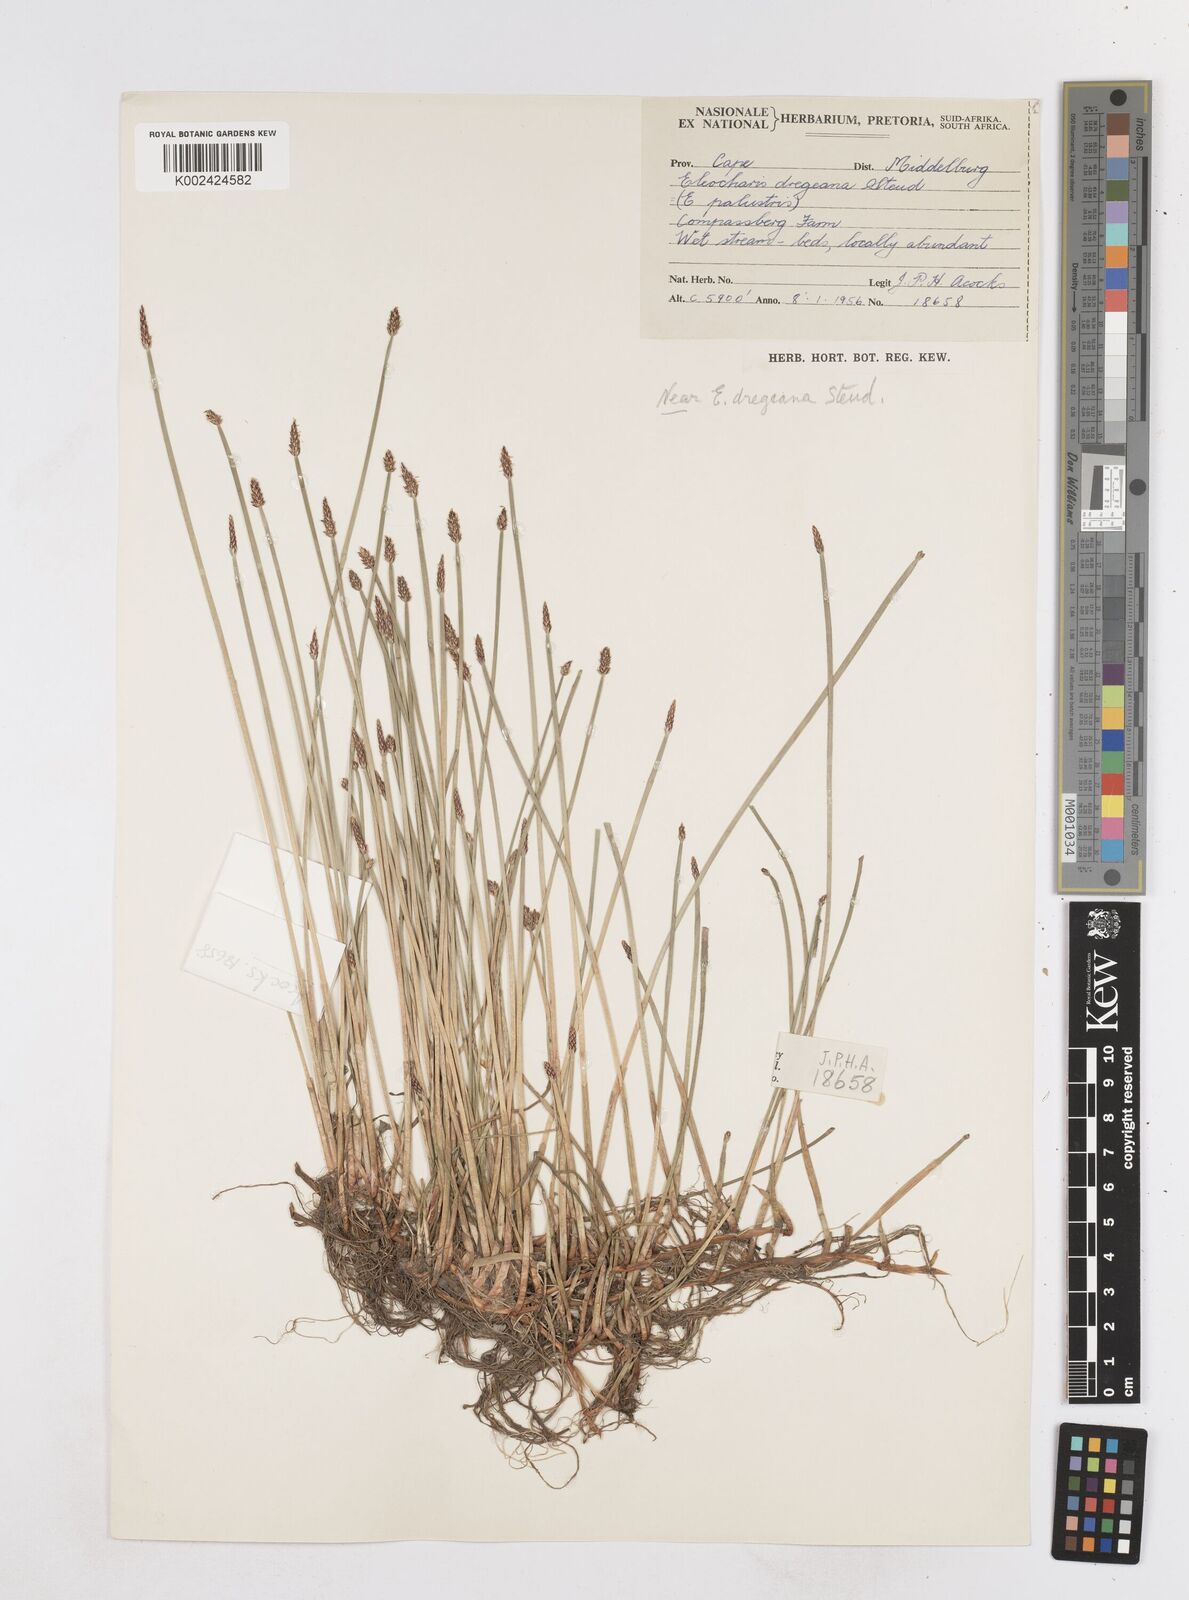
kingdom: Plantae
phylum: Tracheophyta
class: Liliopsida
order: Poales
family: Cyperaceae
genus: Eleocharis
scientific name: Eleocharis dregeana
